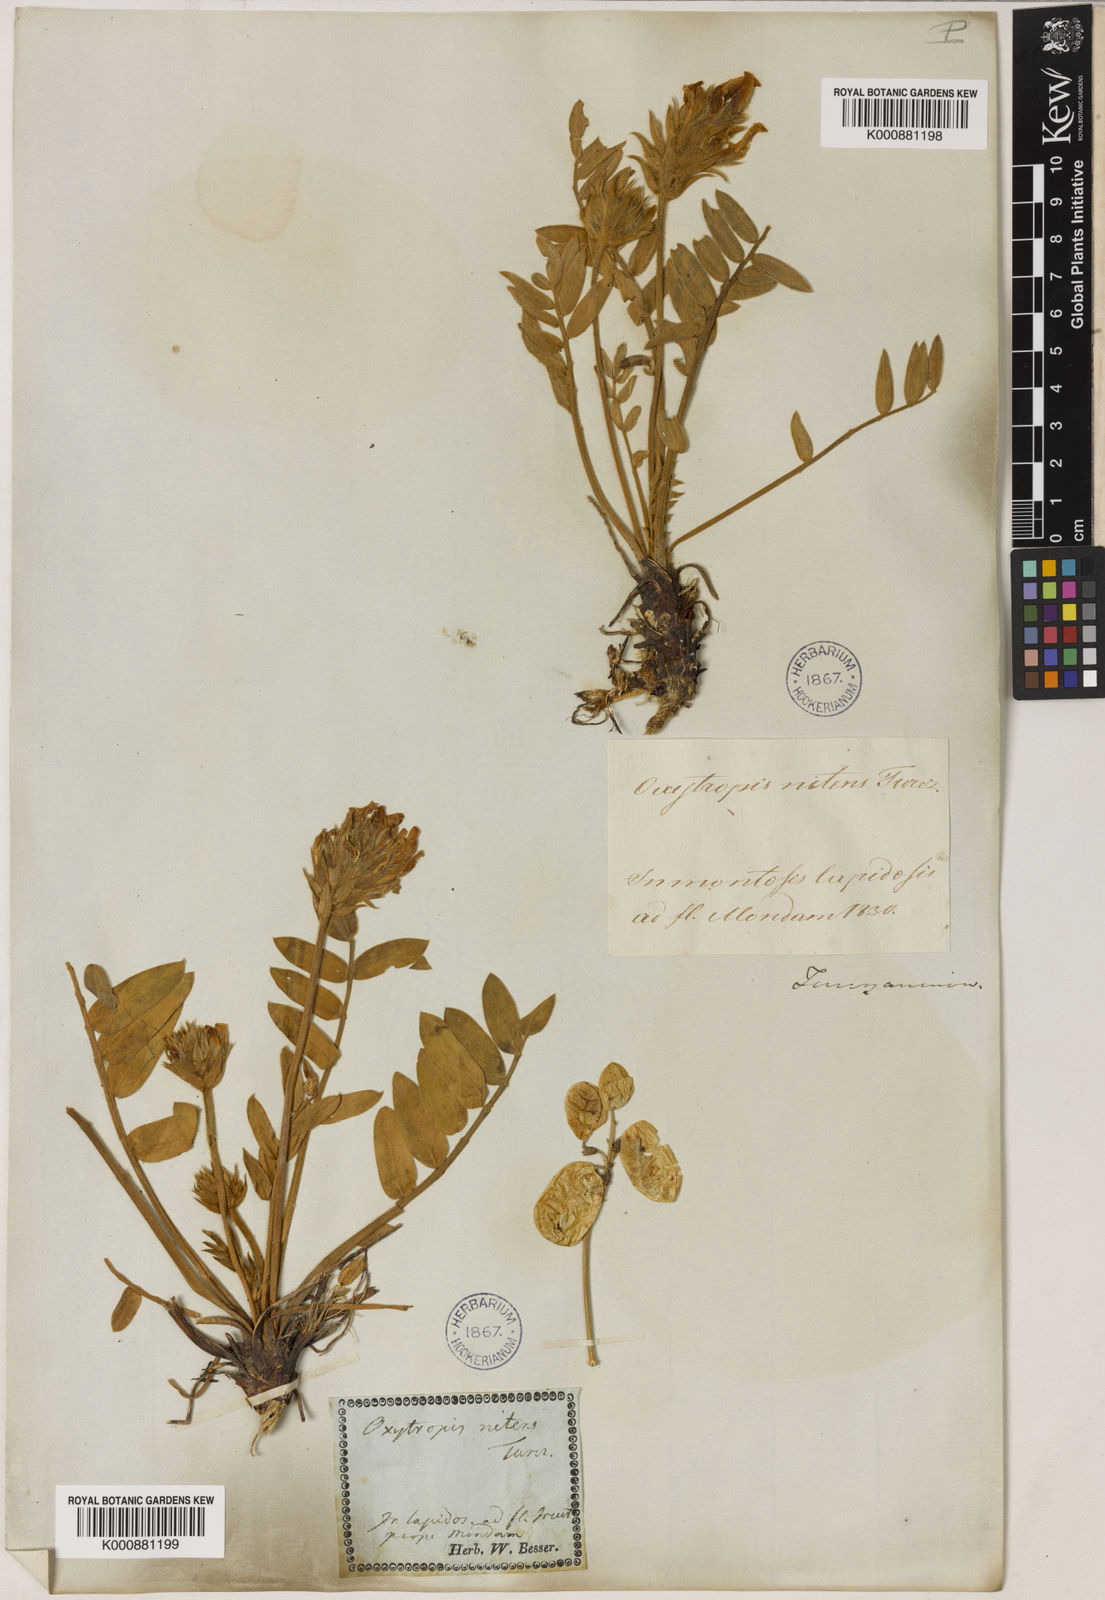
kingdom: Plantae
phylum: Tracheophyta
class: Magnoliopsida
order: Fabales
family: Fabaceae
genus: Oxytropis
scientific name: Oxytropis nitens
